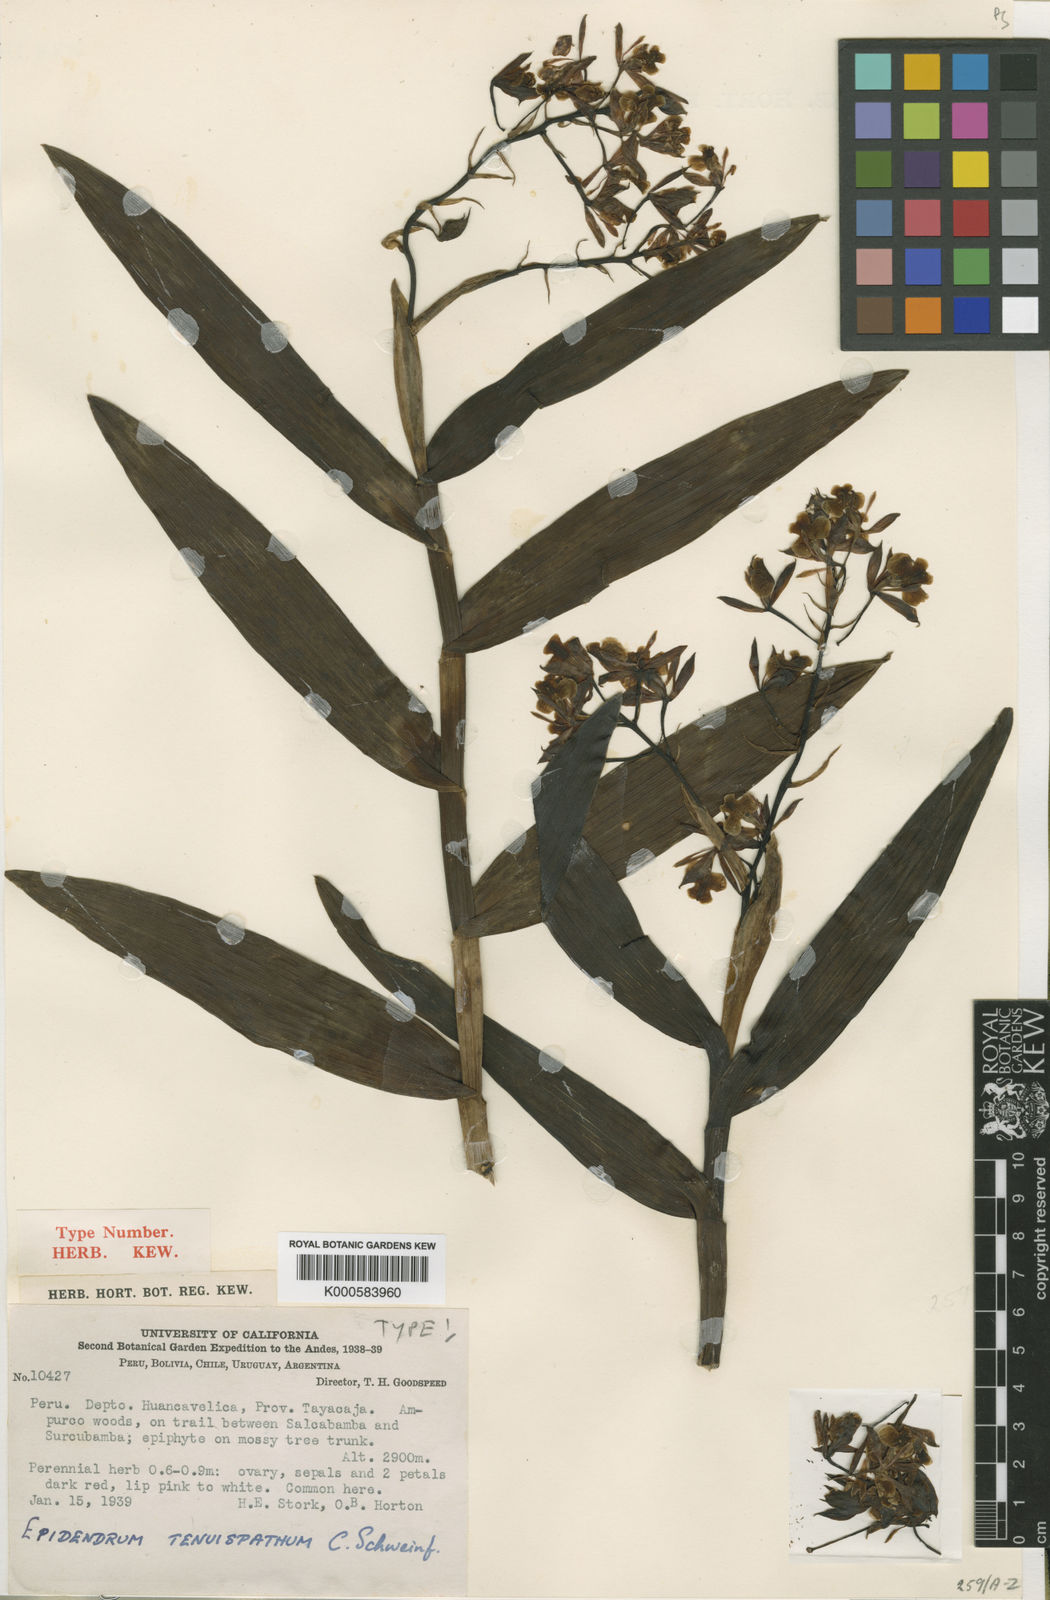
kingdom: Plantae
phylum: Tracheophyta
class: Liliopsida
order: Asparagales
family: Orchidaceae
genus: Epidendrum
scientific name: Epidendrum tenuispathum
